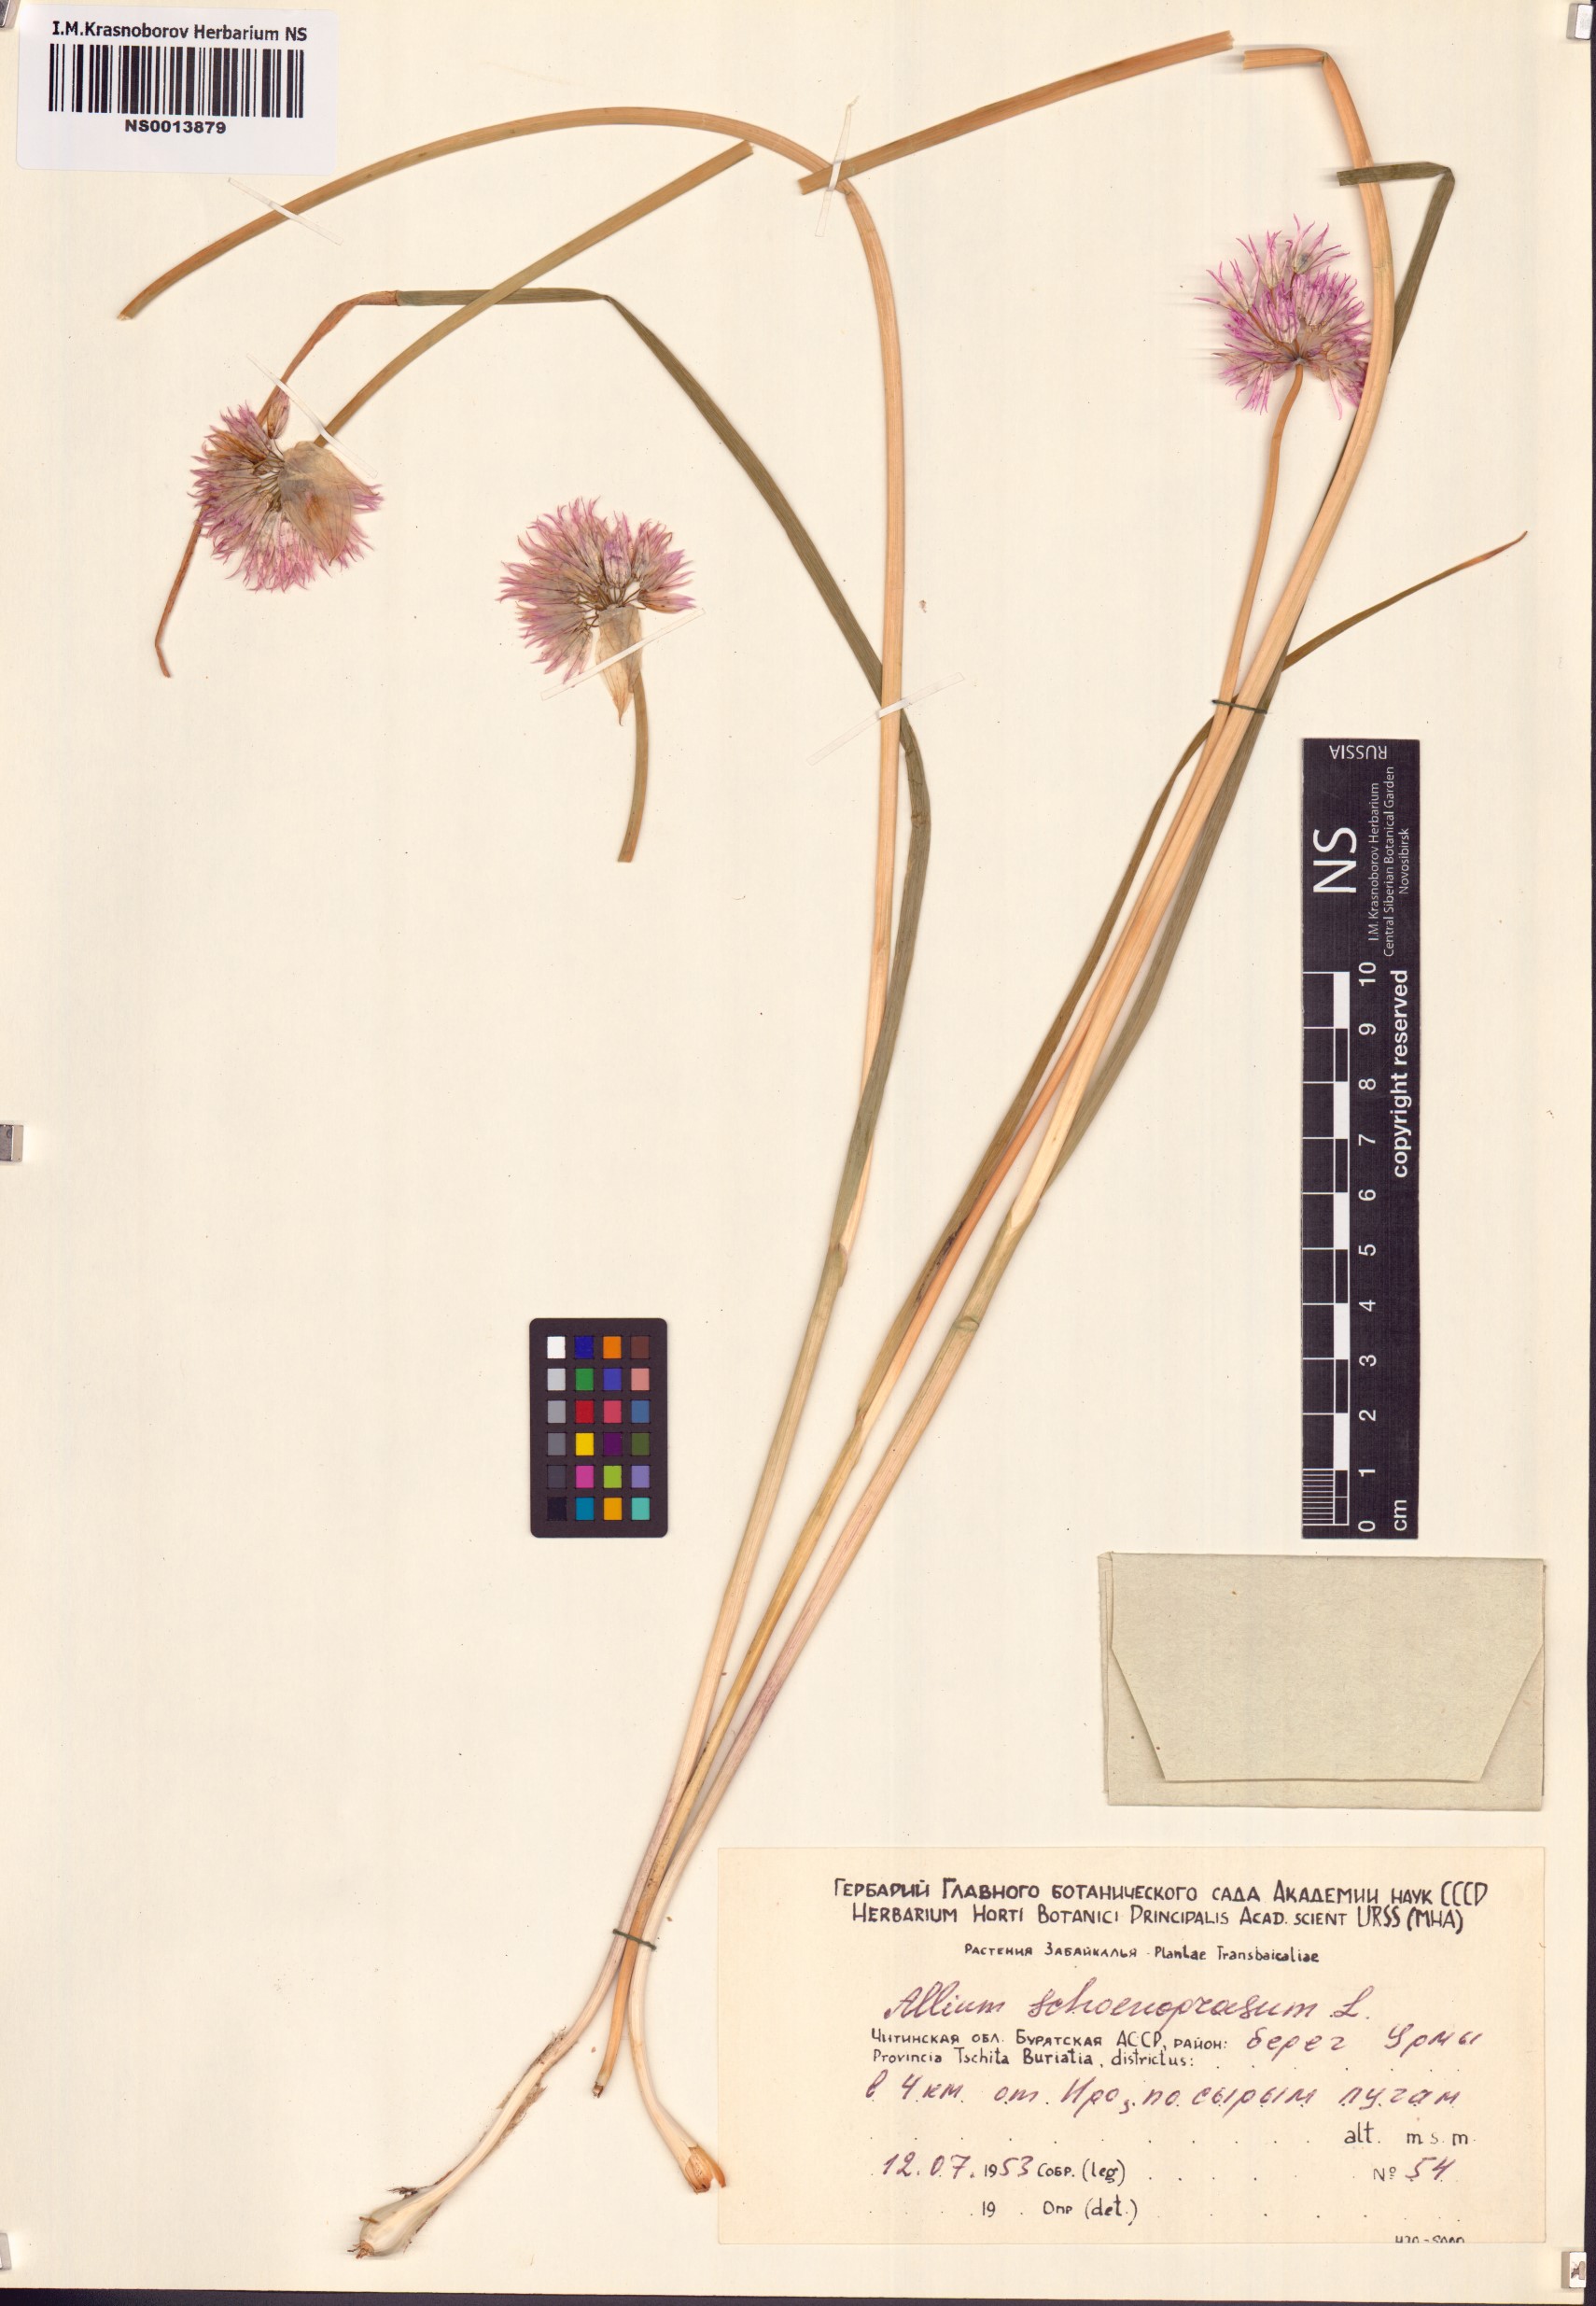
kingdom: Plantae
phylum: Tracheophyta
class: Liliopsida
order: Asparagales
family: Amaryllidaceae
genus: Allium
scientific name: Allium schoenoprasum
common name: Chives
